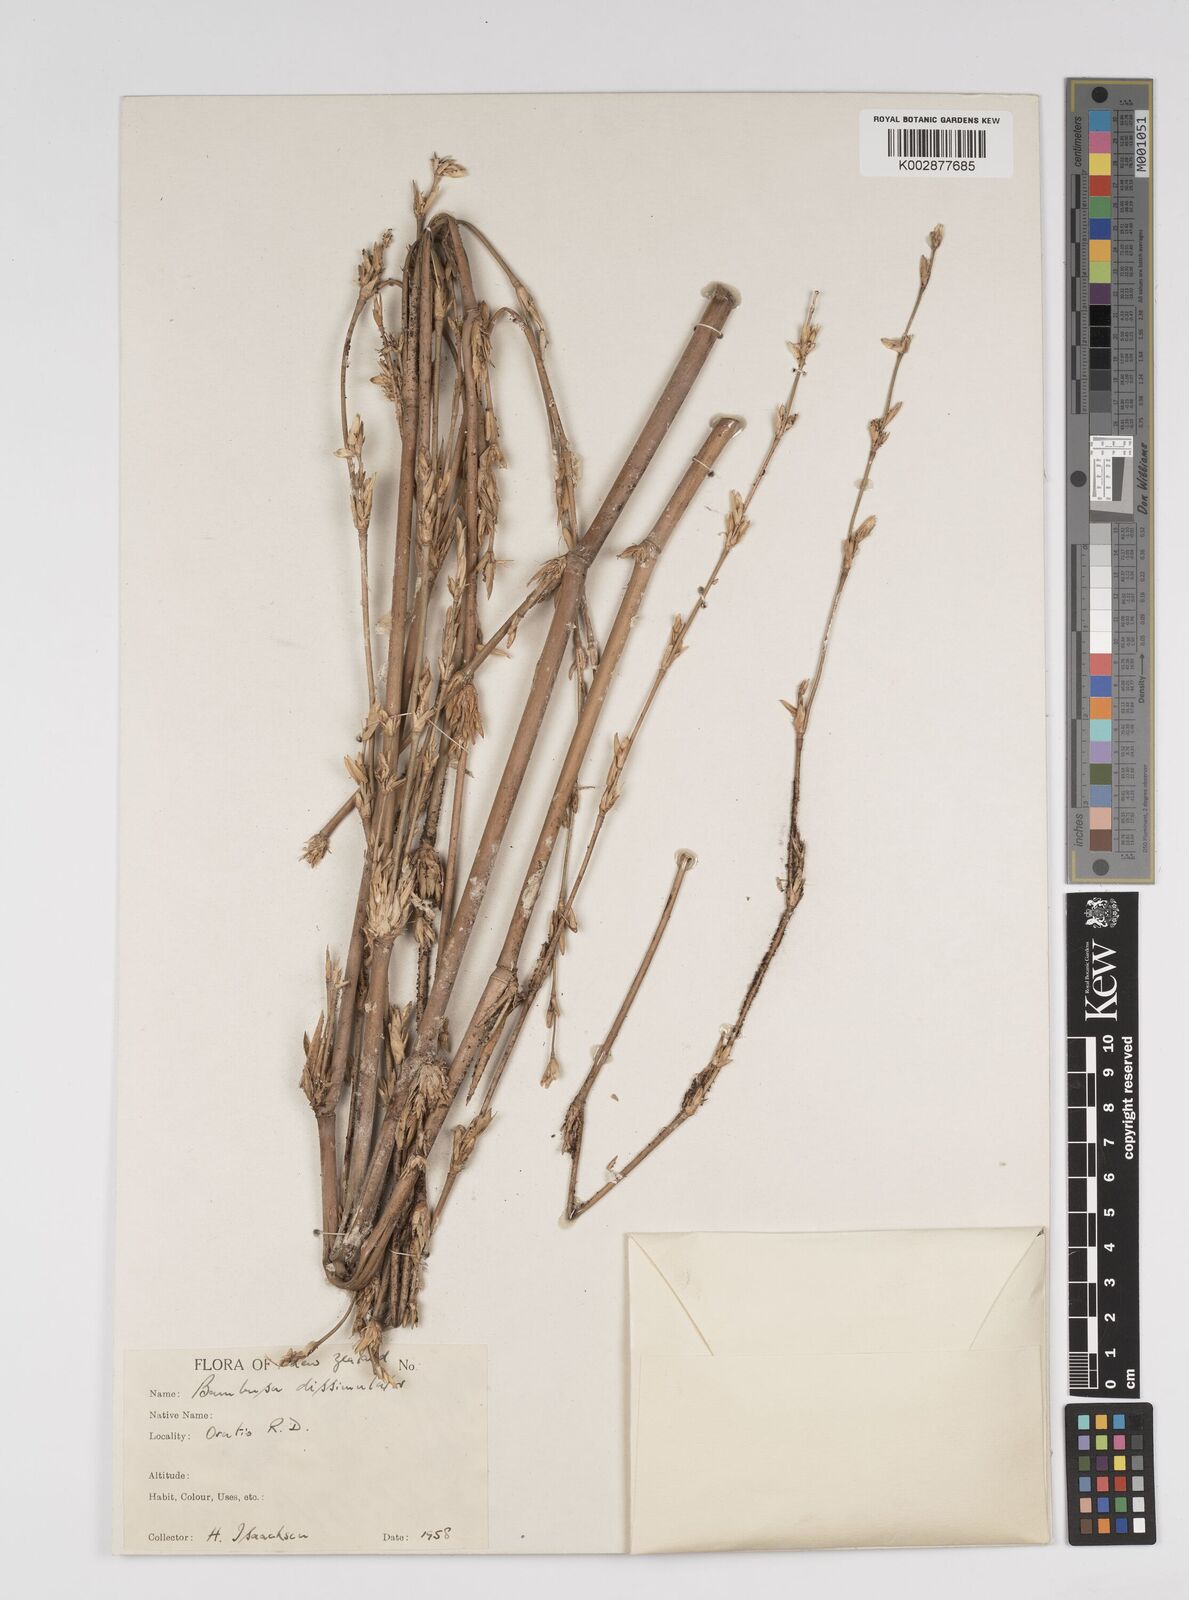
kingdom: Plantae
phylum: Tracheophyta
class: Liliopsida
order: Poales
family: Poaceae
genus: Bambusa
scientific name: Bambusa dissimulator
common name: Muddy bamboo
